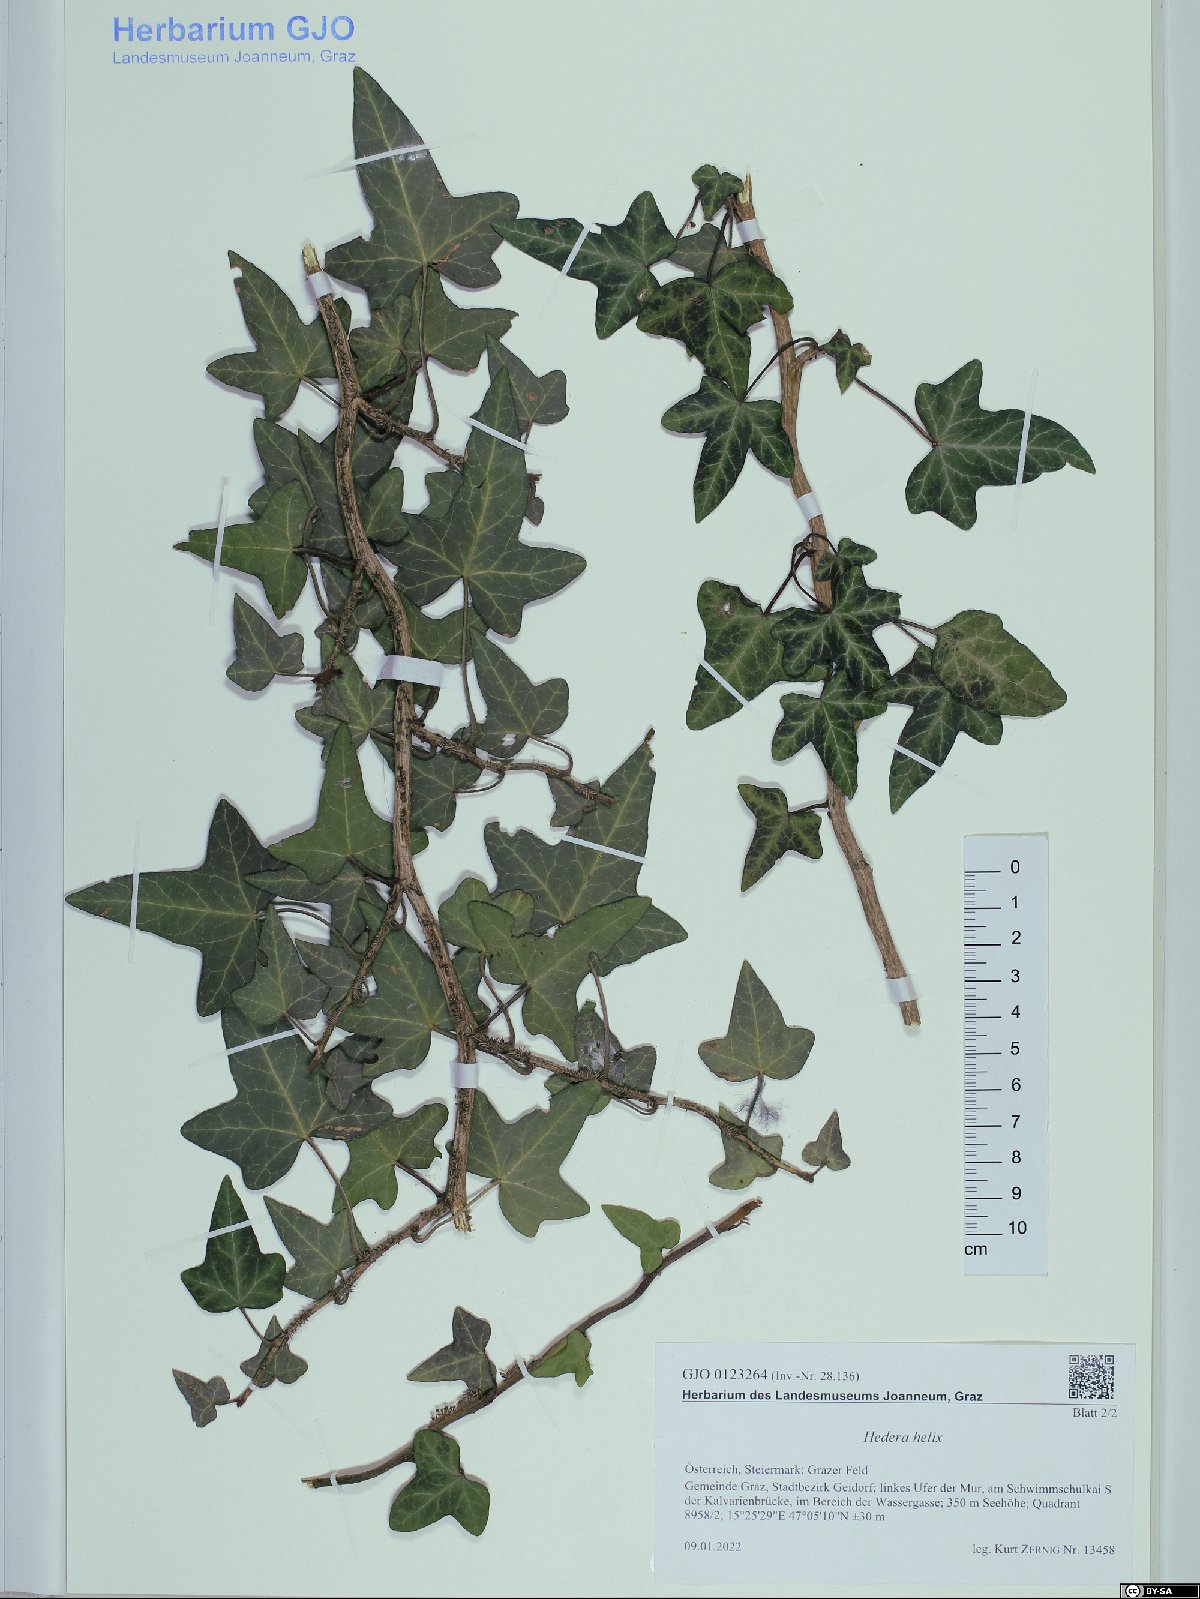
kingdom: Plantae
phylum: Tracheophyta
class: Magnoliopsida
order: Apiales
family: Araliaceae
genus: Hedera
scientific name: Hedera helix
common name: Ivy
